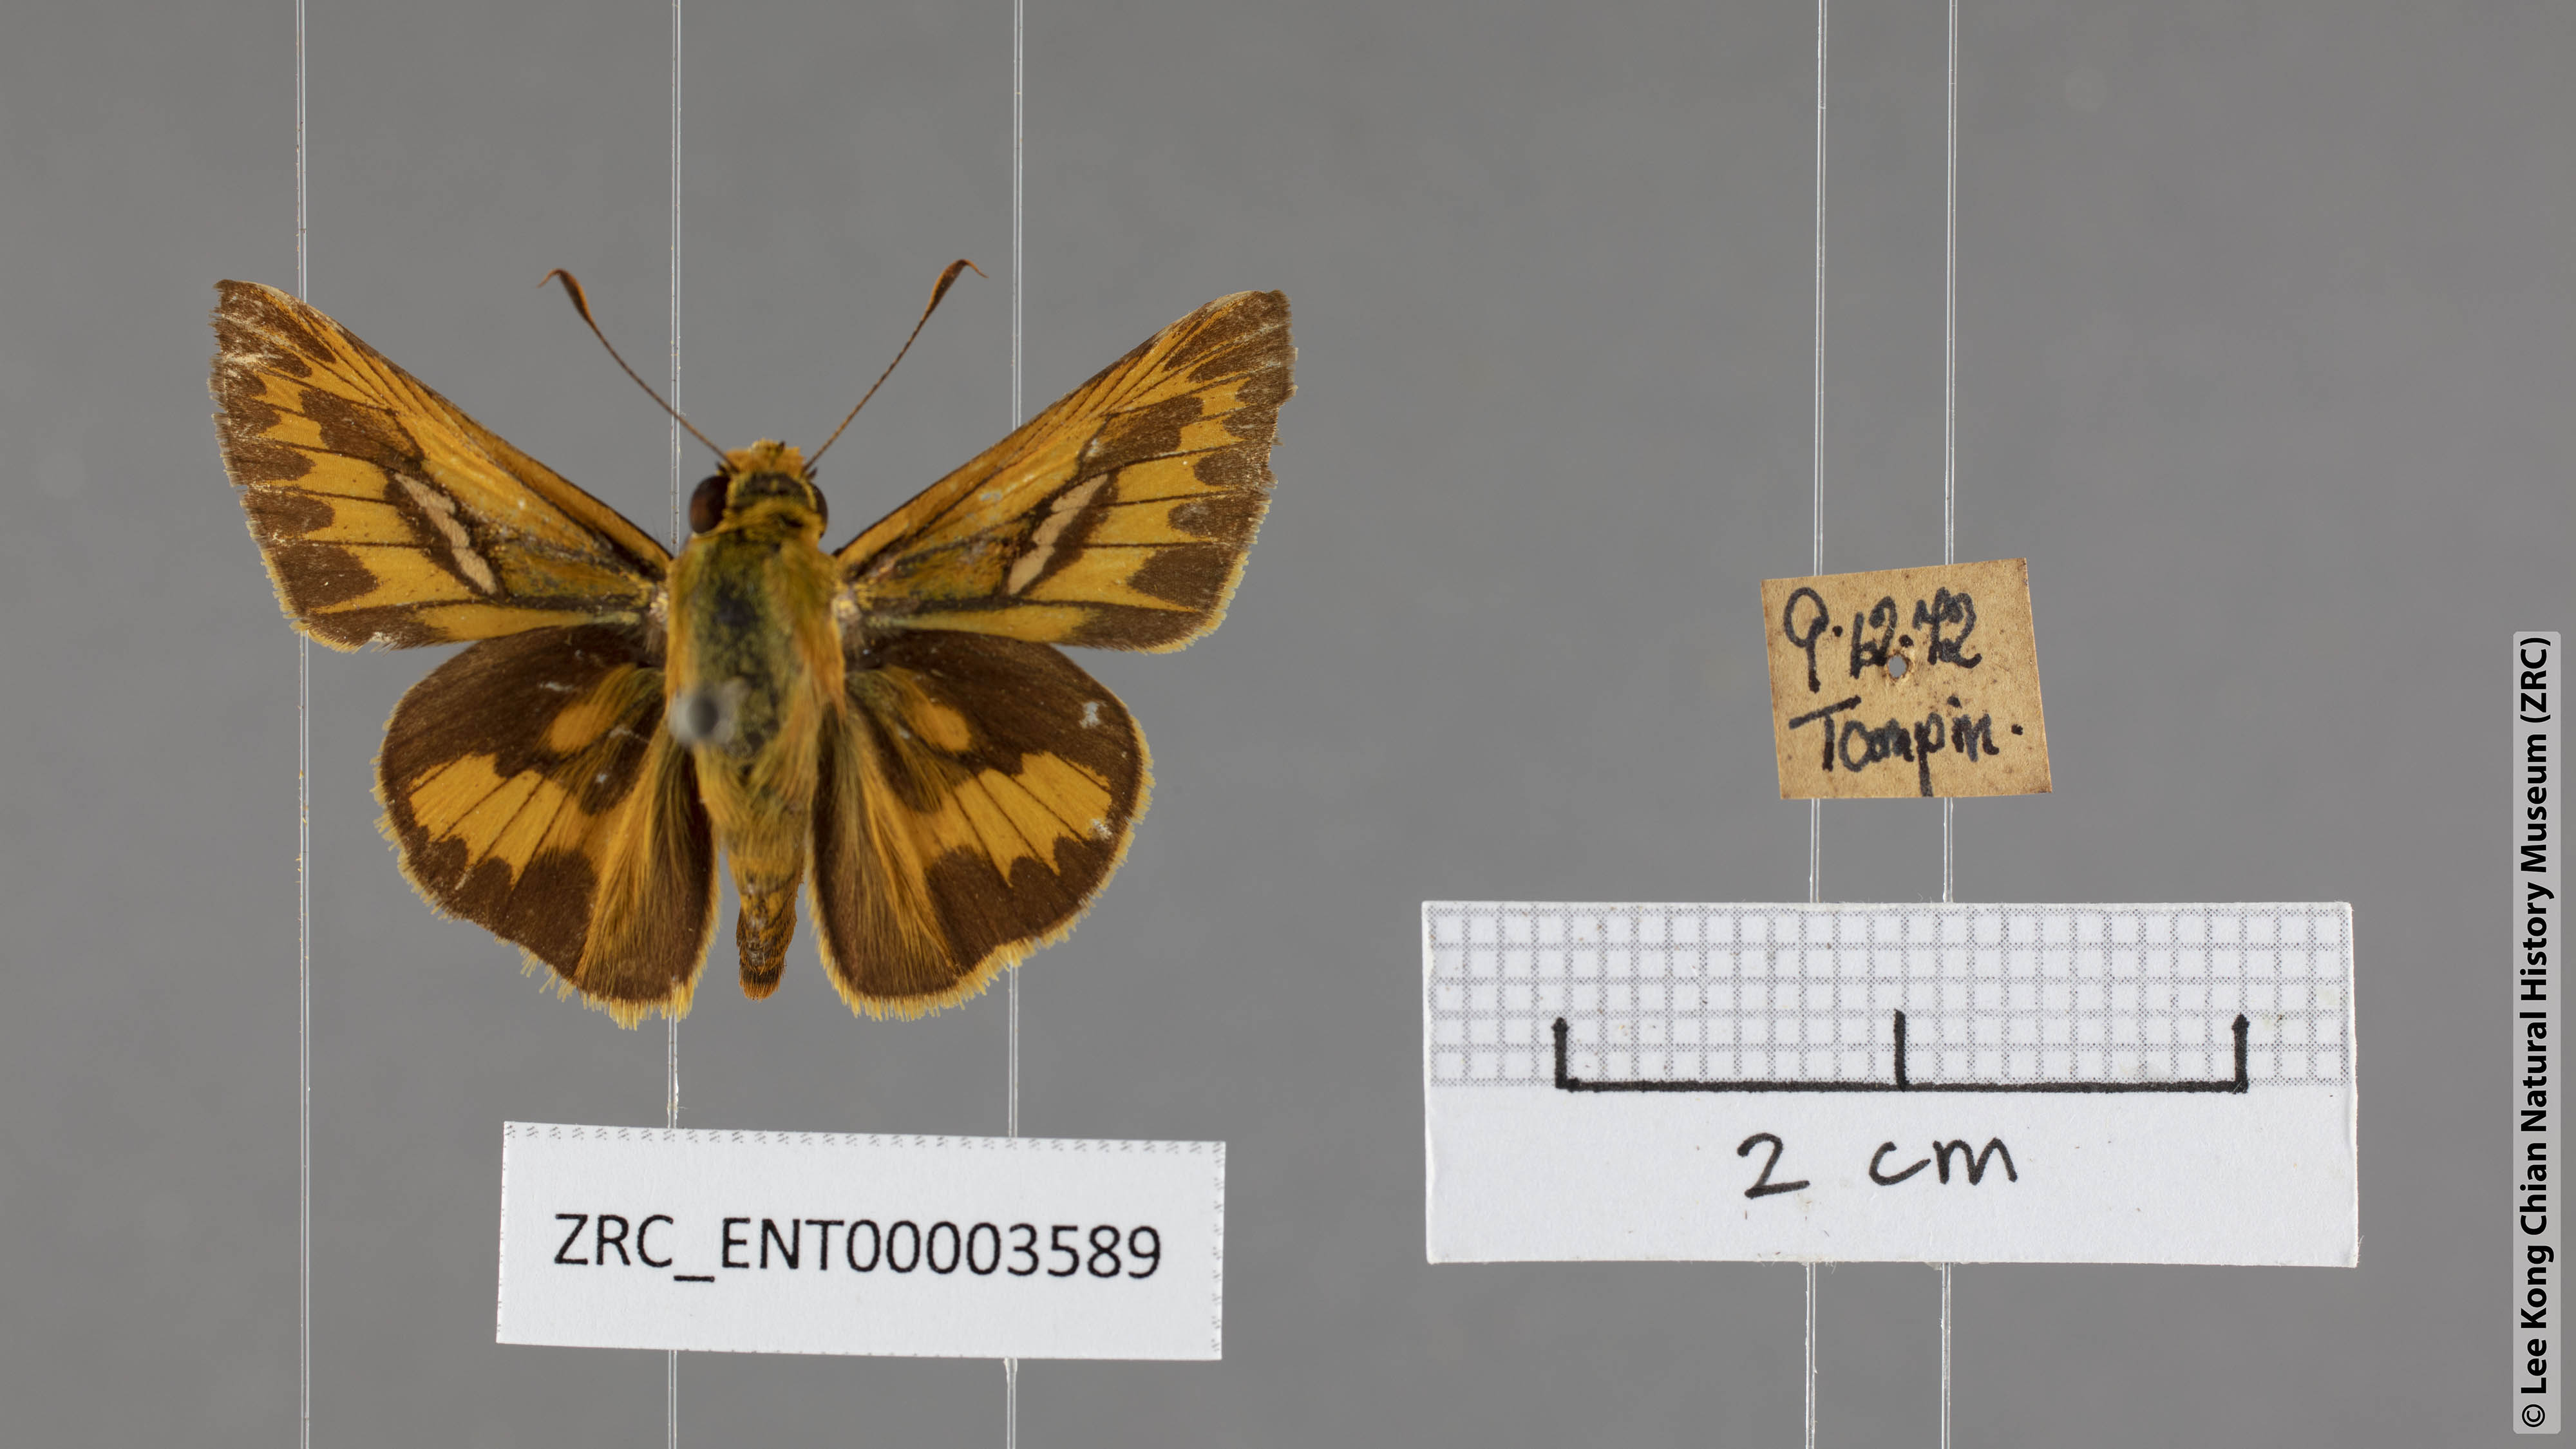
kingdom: Animalia
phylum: Arthropoda
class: Insecta
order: Lepidoptera
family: Hesperiidae
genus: Telicota
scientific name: Telicota colon
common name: Pale palm dart
